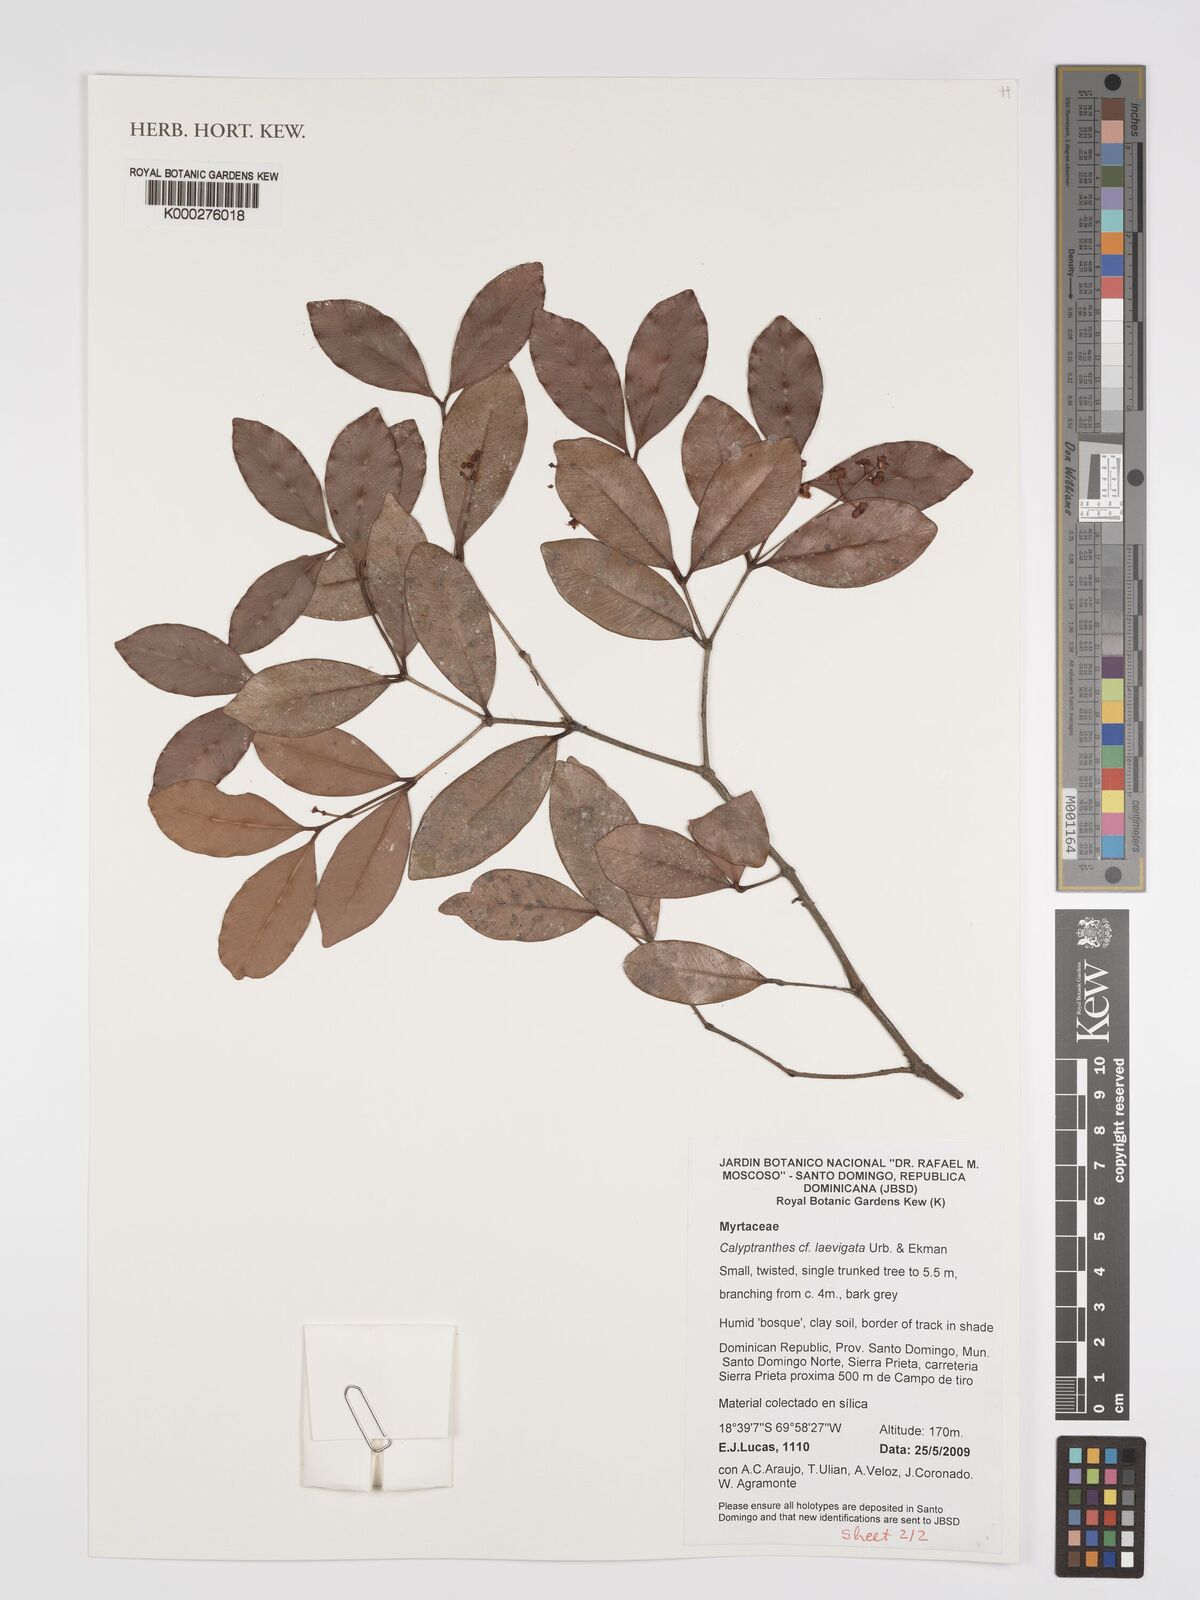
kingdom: Plantae
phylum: Tracheophyta
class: Magnoliopsida
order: Myrtales
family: Myrtaceae
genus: Myrcia
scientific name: Myrcia neolaevigata
